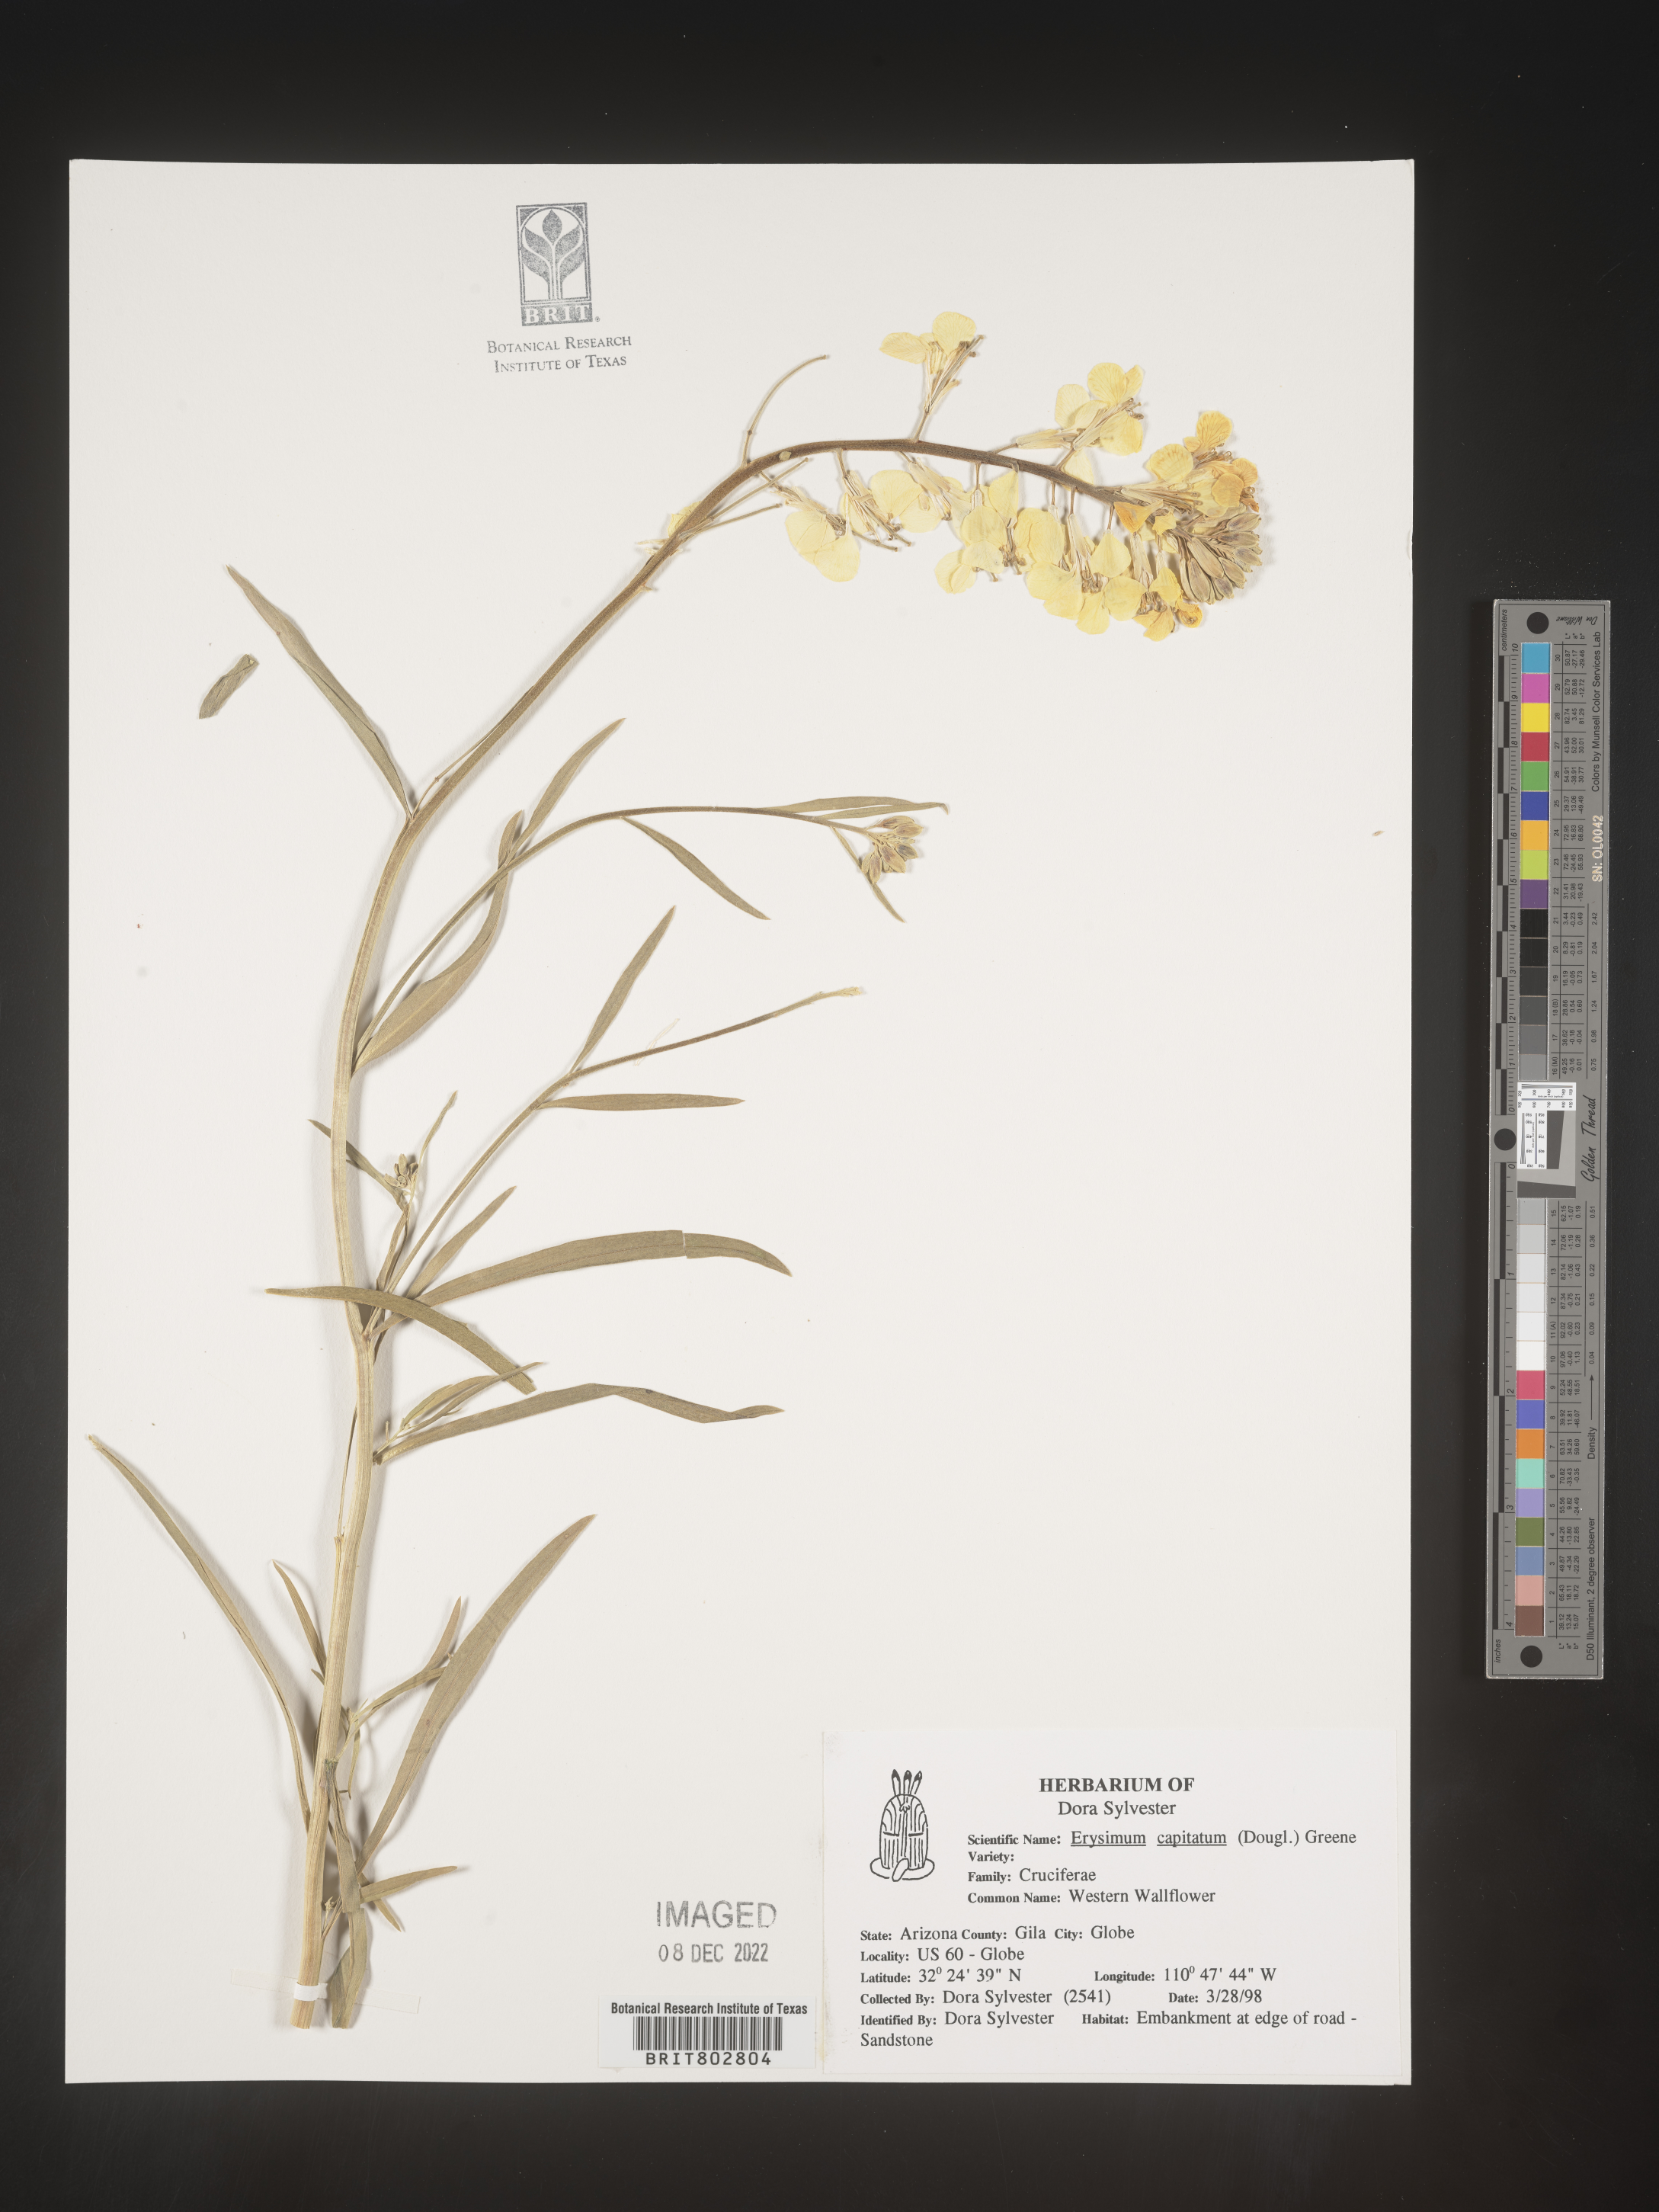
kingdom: Plantae
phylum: Tracheophyta
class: Magnoliopsida
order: Brassicales
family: Brassicaceae
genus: Erysimum
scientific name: Erysimum capitatum
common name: Western wallflower
